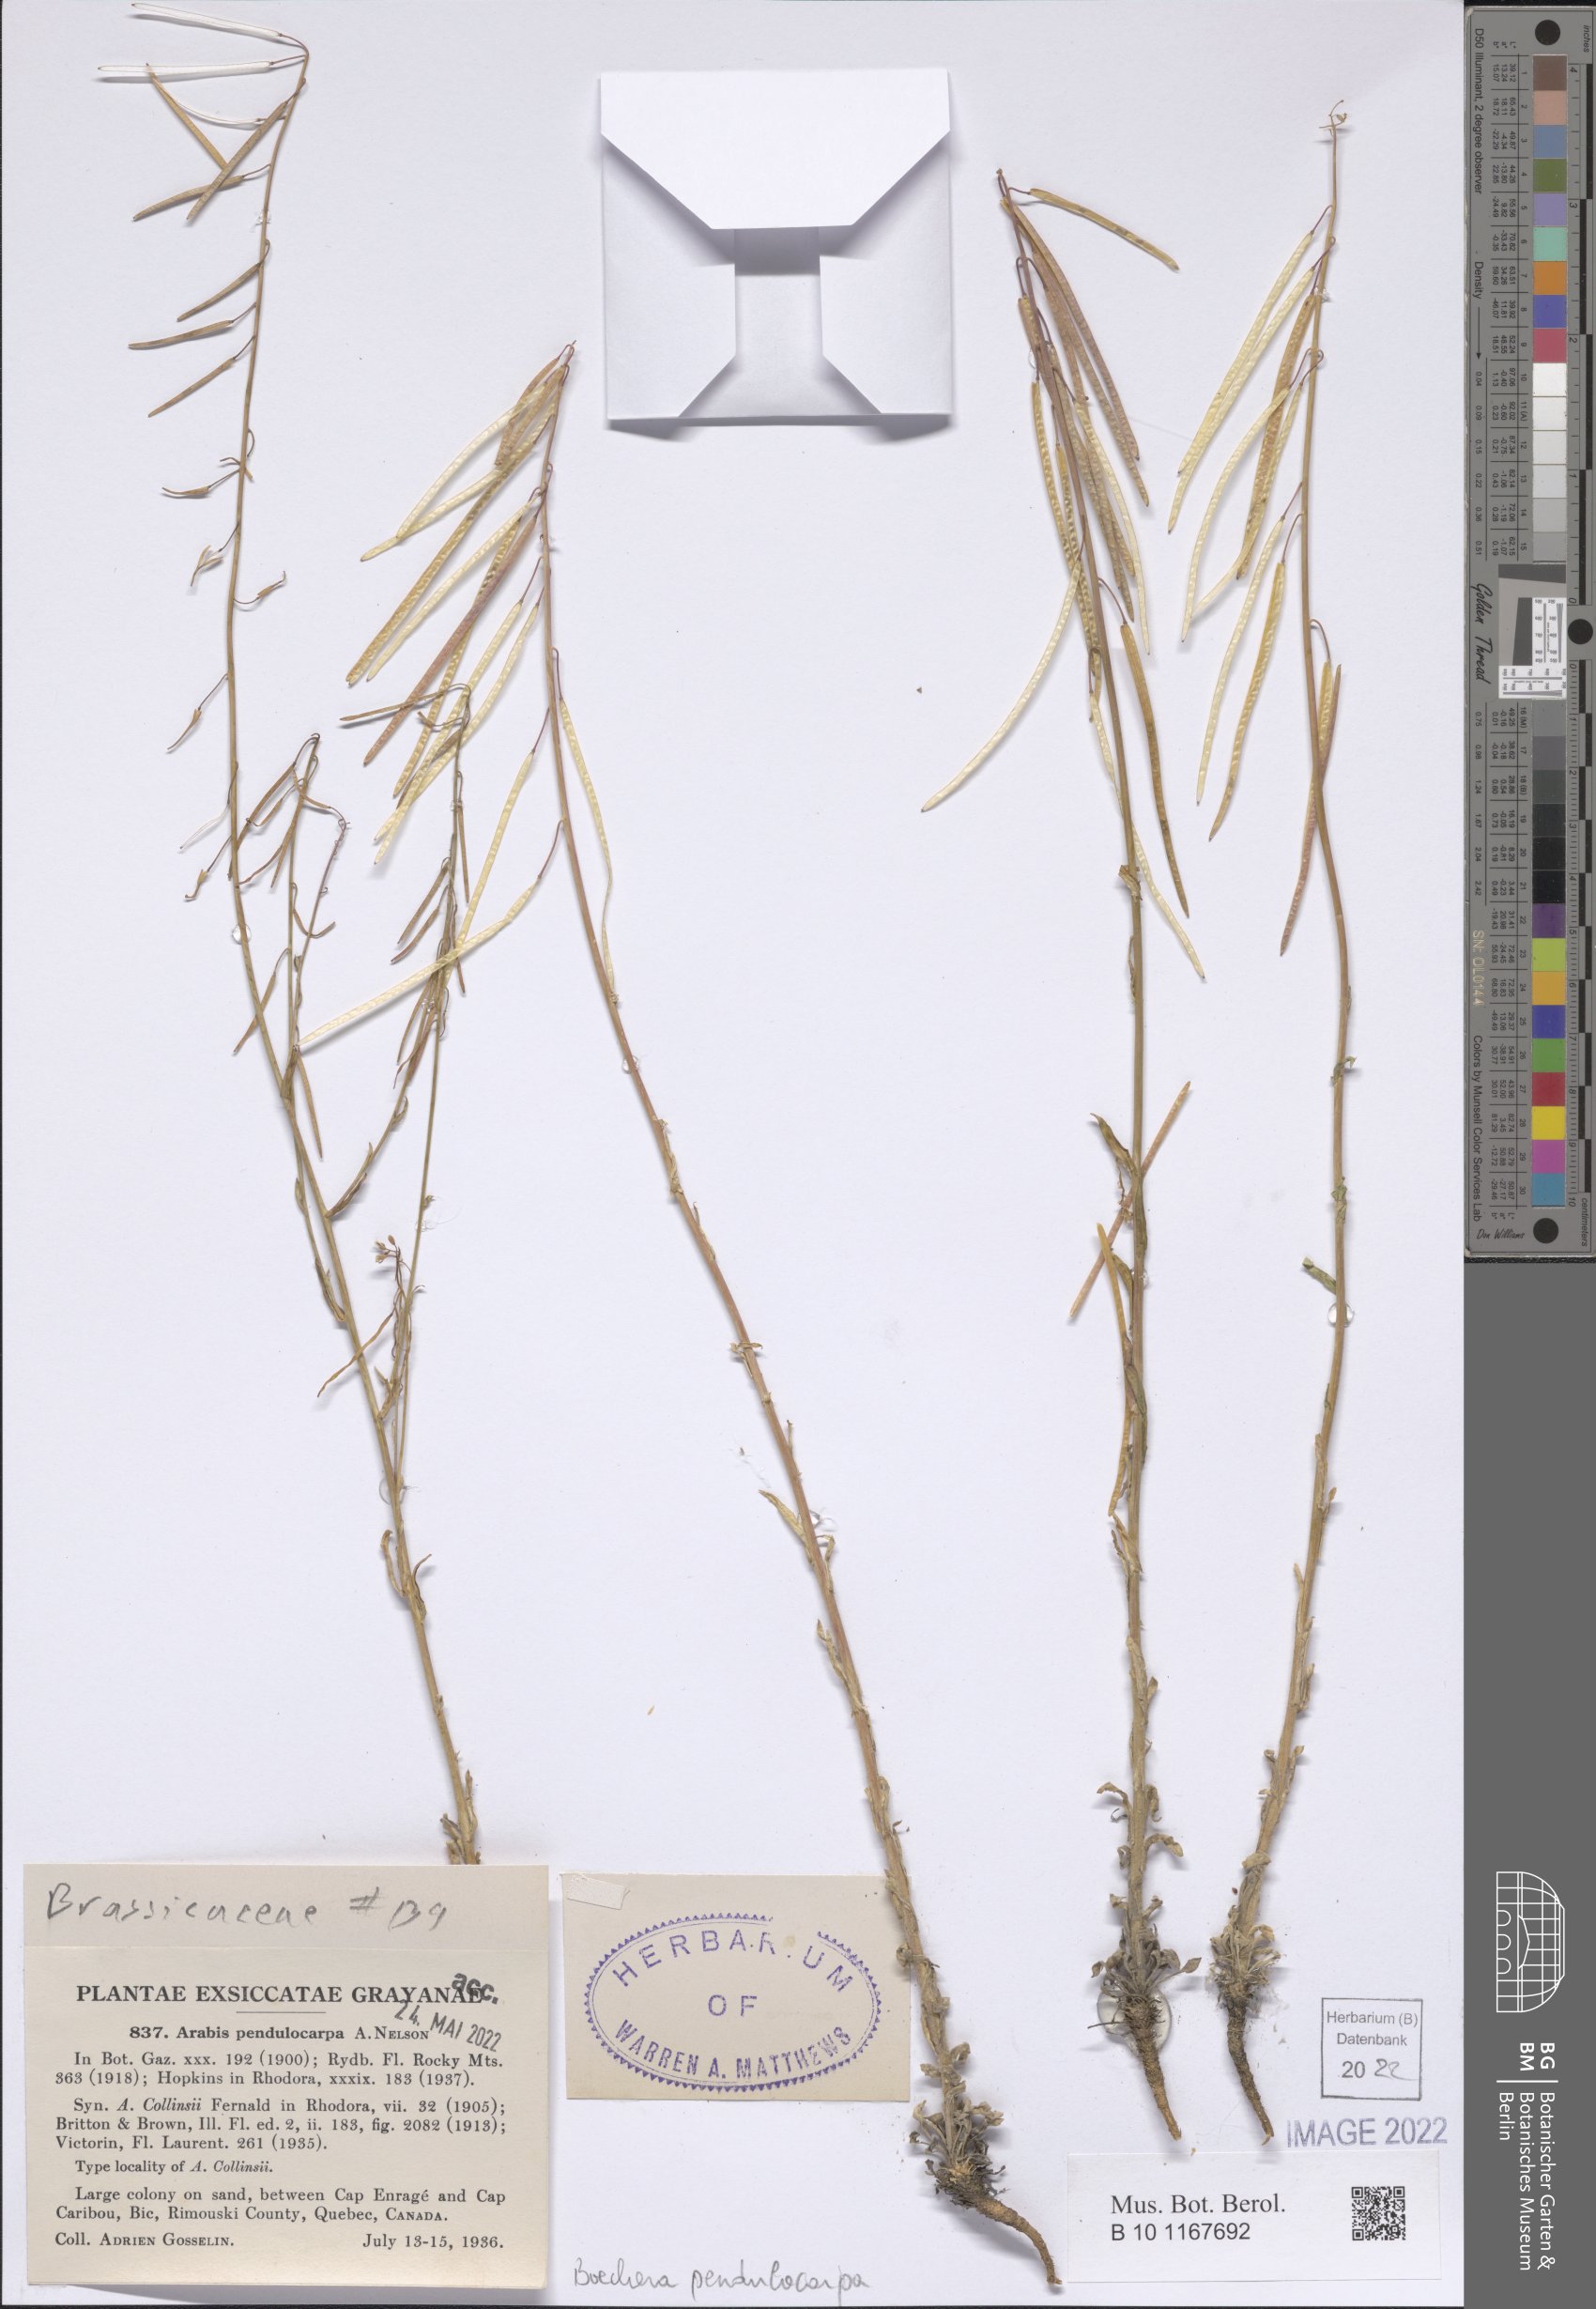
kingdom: Plantae
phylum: Tracheophyta
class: Magnoliopsida
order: Brassicales
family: Brassicaceae
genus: Boechera
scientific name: Boechera pendulocarpa
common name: Dangle-pod rockcress
